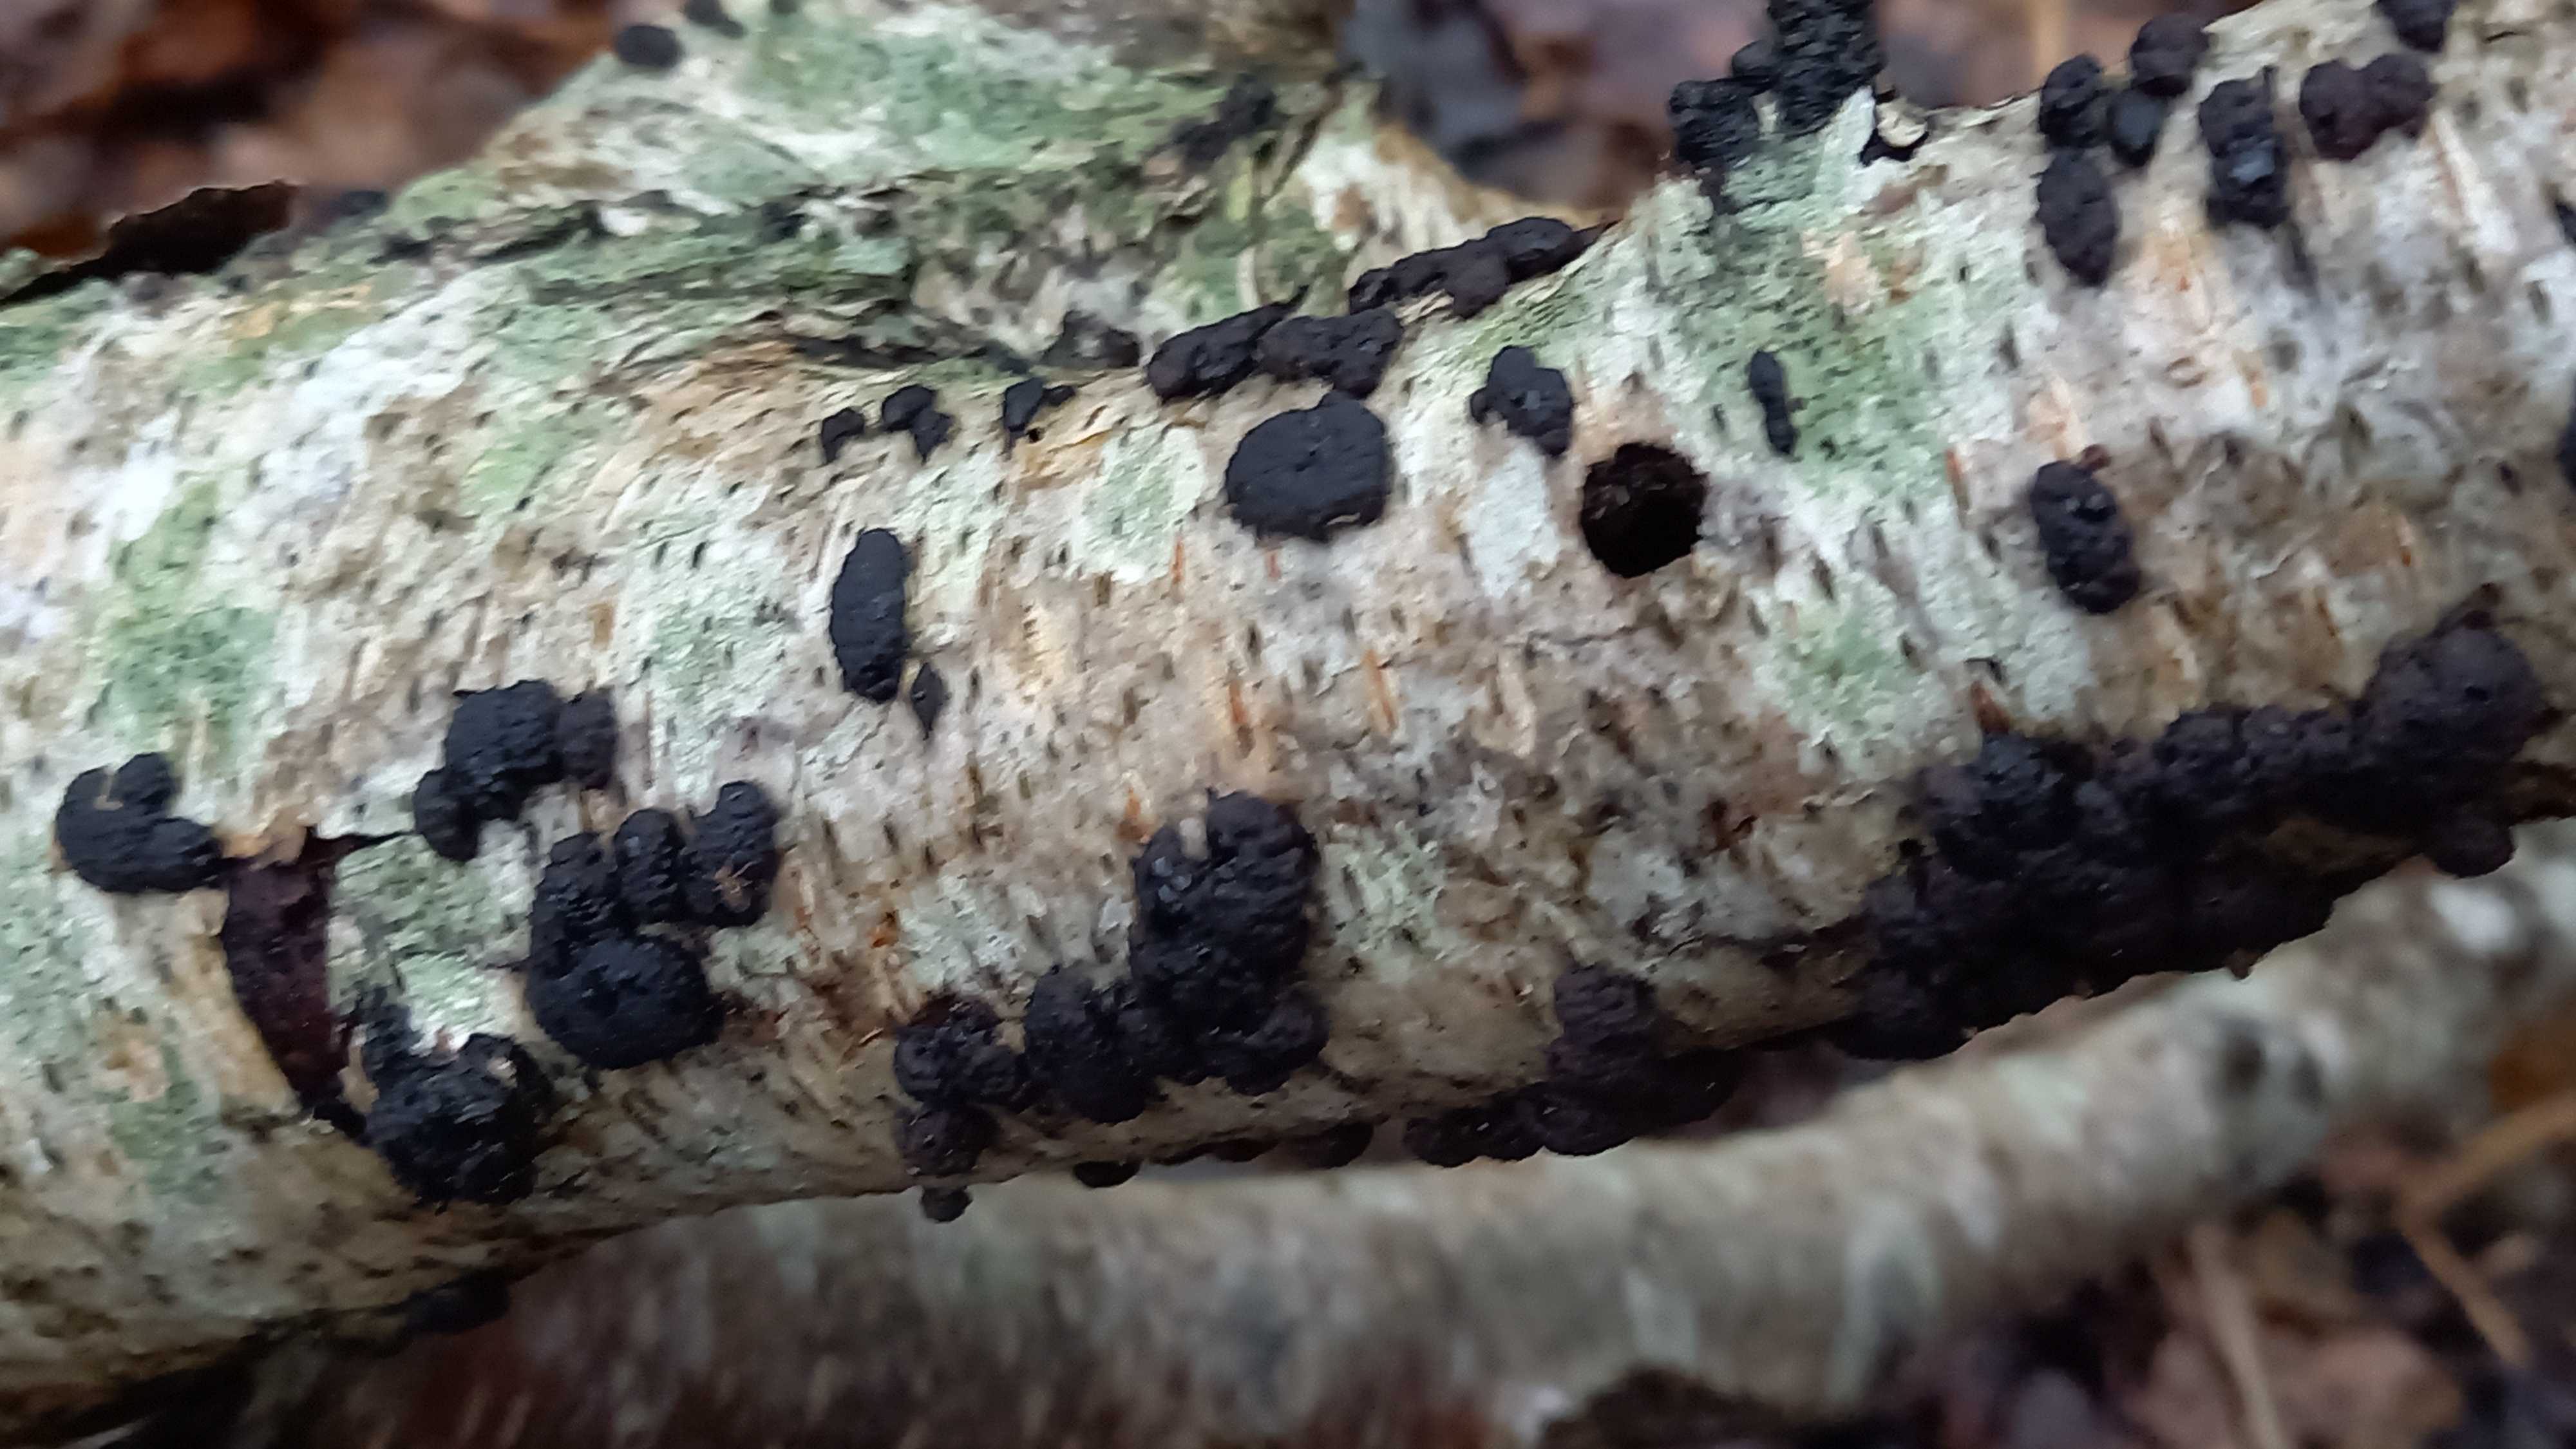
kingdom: Fungi
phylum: Ascomycota
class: Sordariomycetes
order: Xylariales
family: Hypoxylaceae
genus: Jackrogersella
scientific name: Jackrogersella multiformis
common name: foranderlig kulbær
